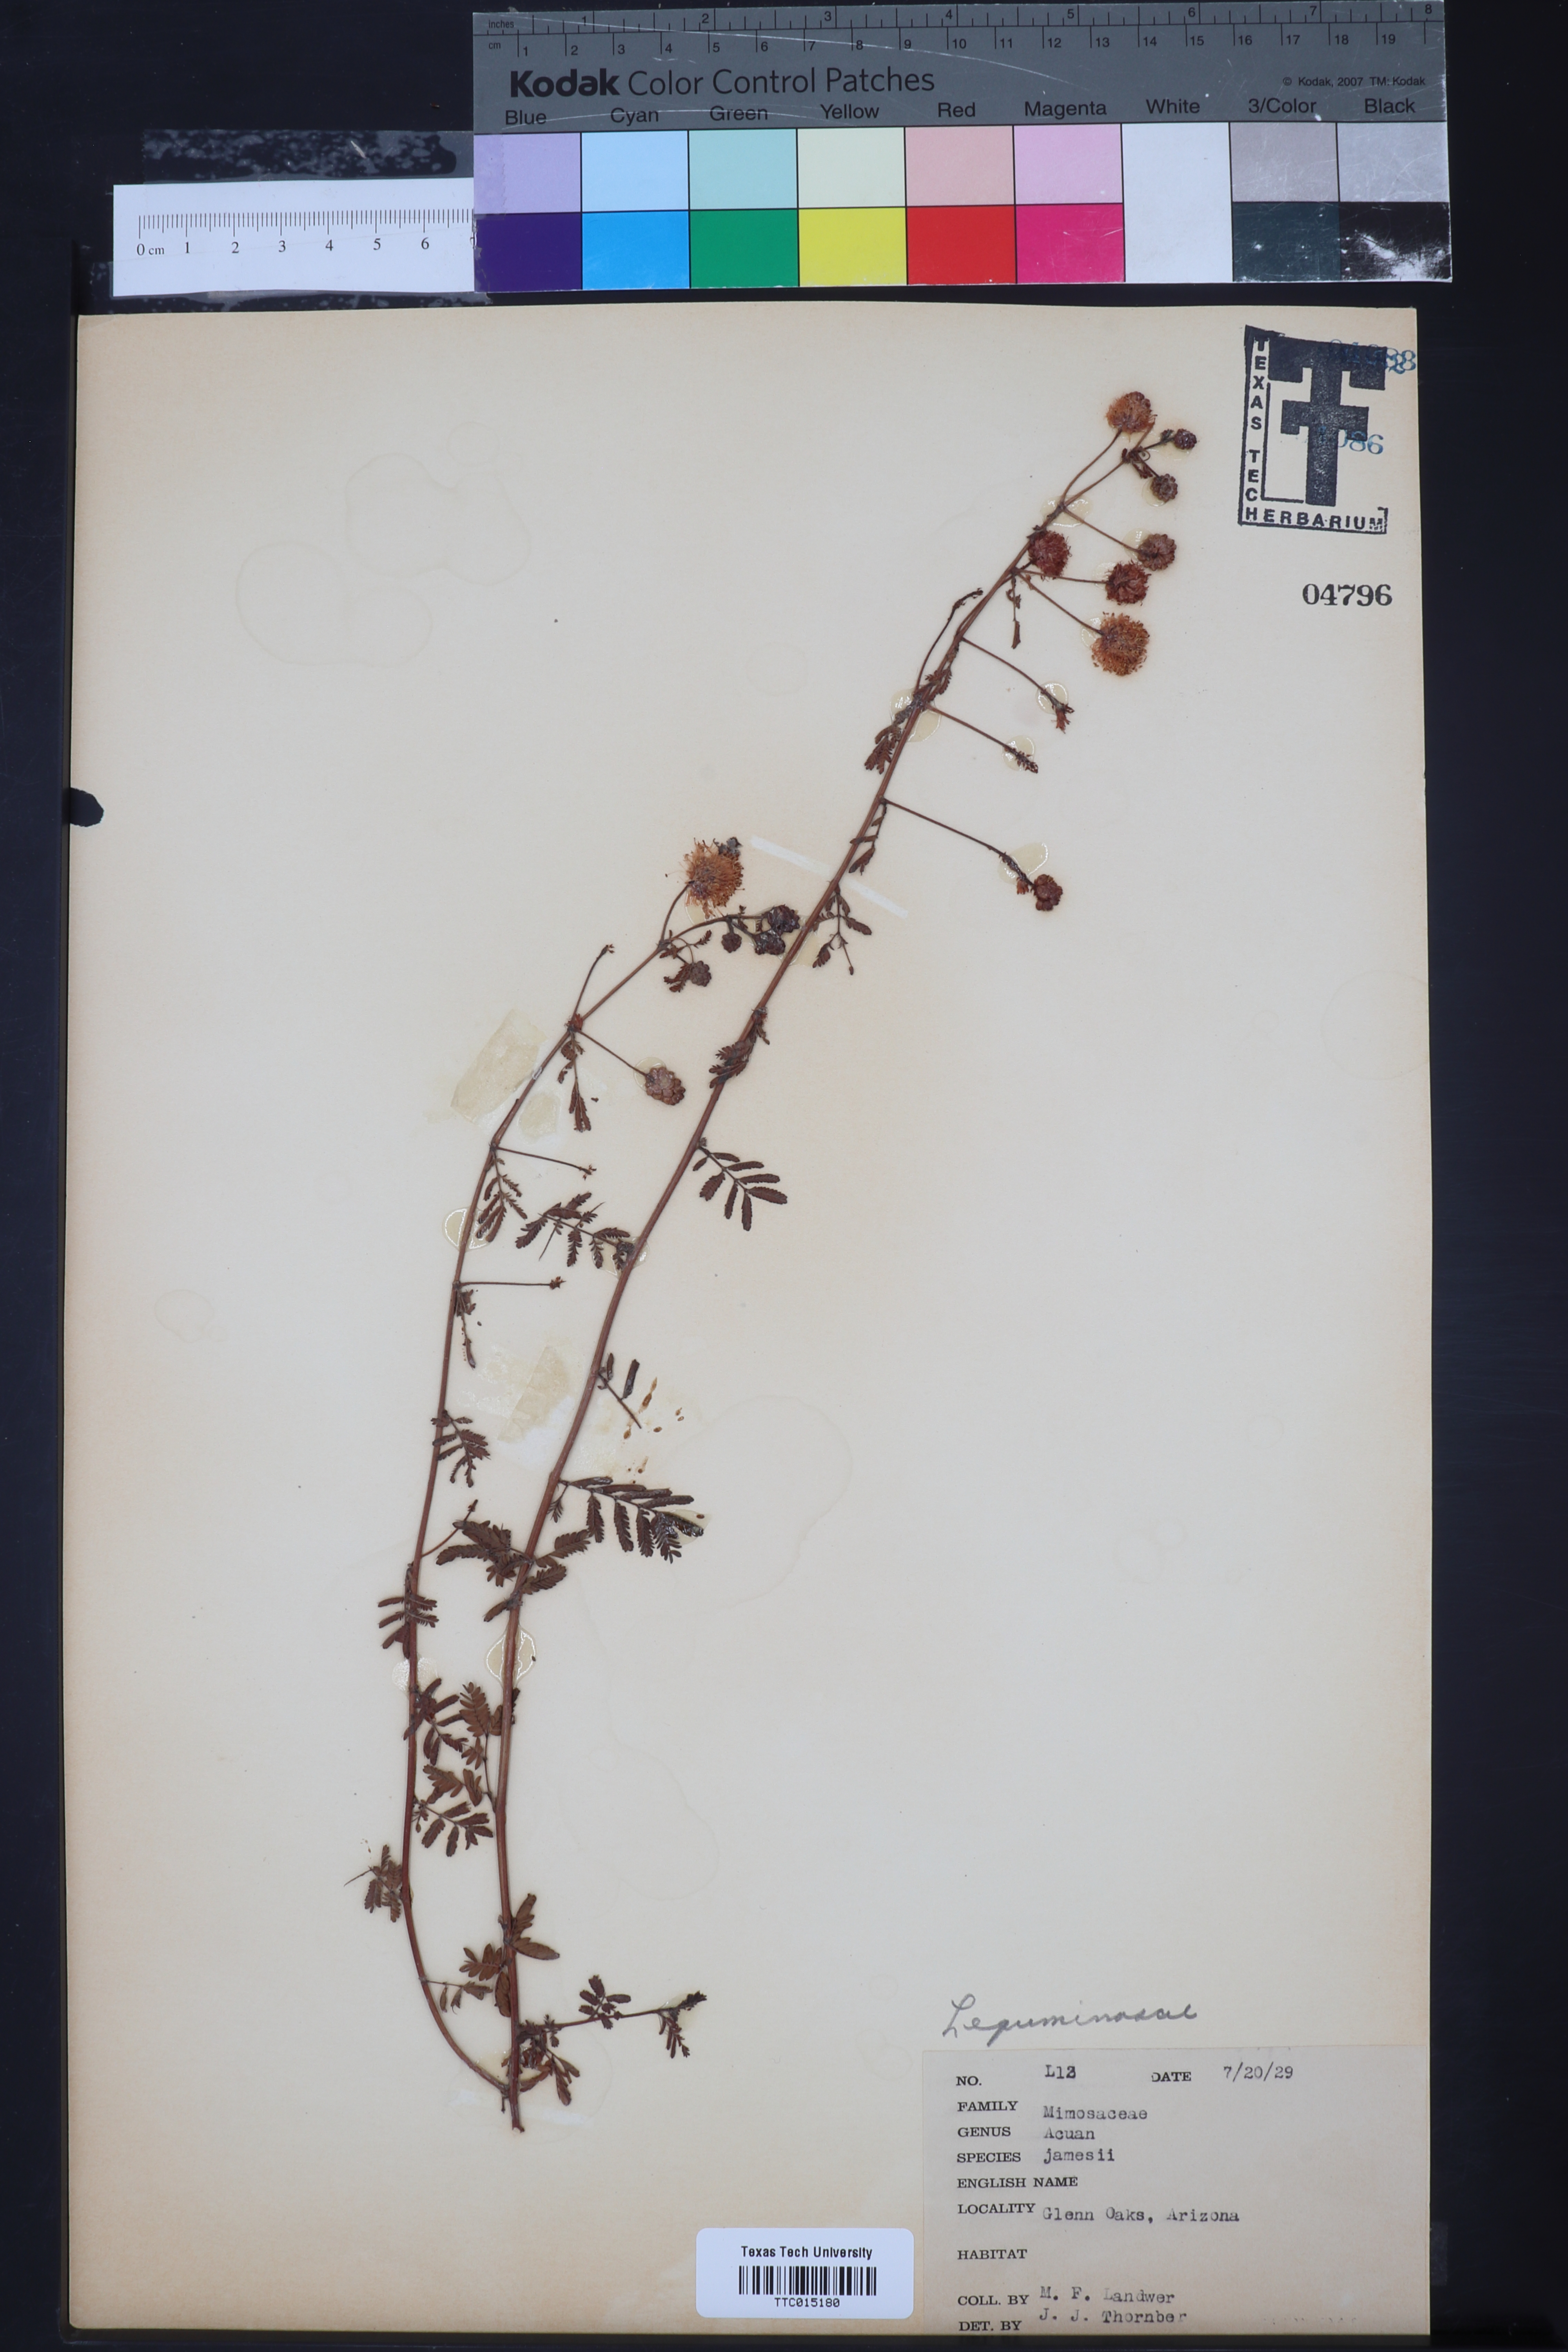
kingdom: Plantae
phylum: Tracheophyta
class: Magnoliopsida
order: Fabales
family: Fabaceae
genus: Desmanthus
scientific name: Desmanthus cooleyi
